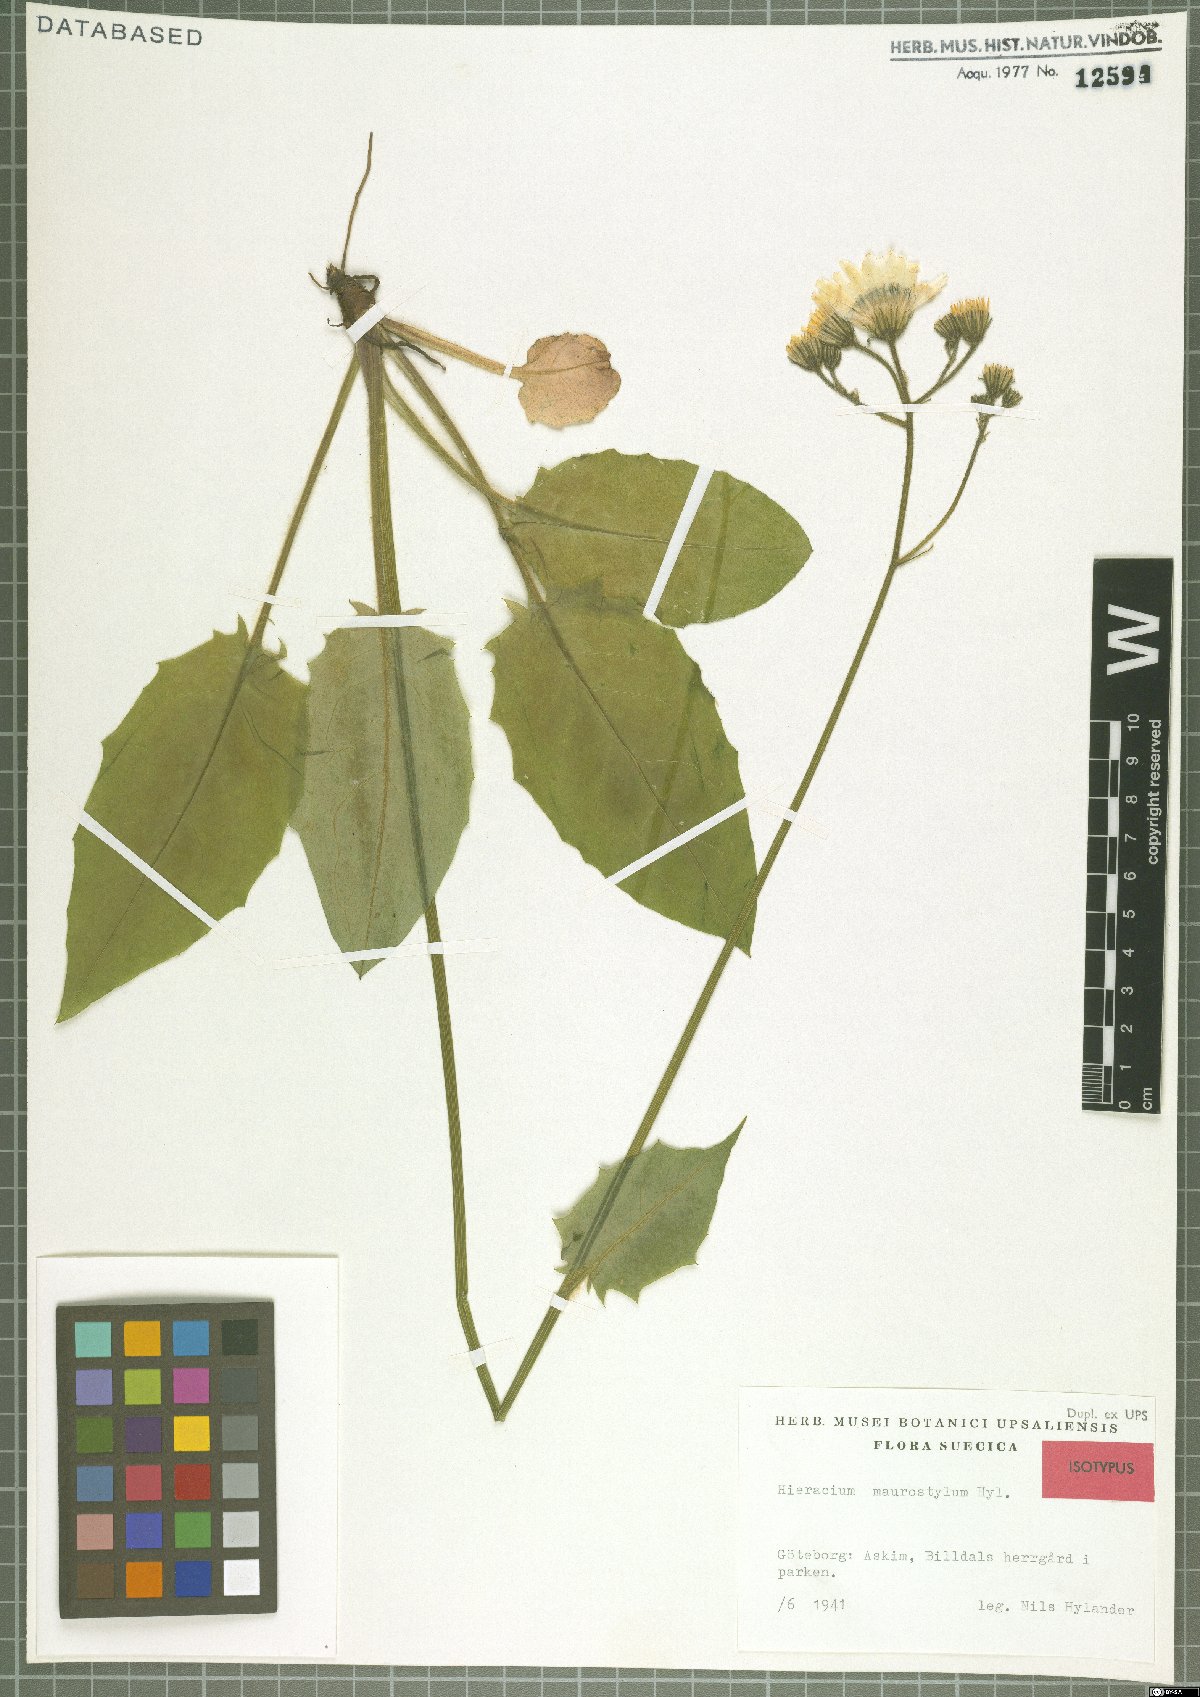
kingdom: Plantae
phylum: Tracheophyta
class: Magnoliopsida
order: Asterales
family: Asteraceae
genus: Hieracium
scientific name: Hieracium maurostylum
